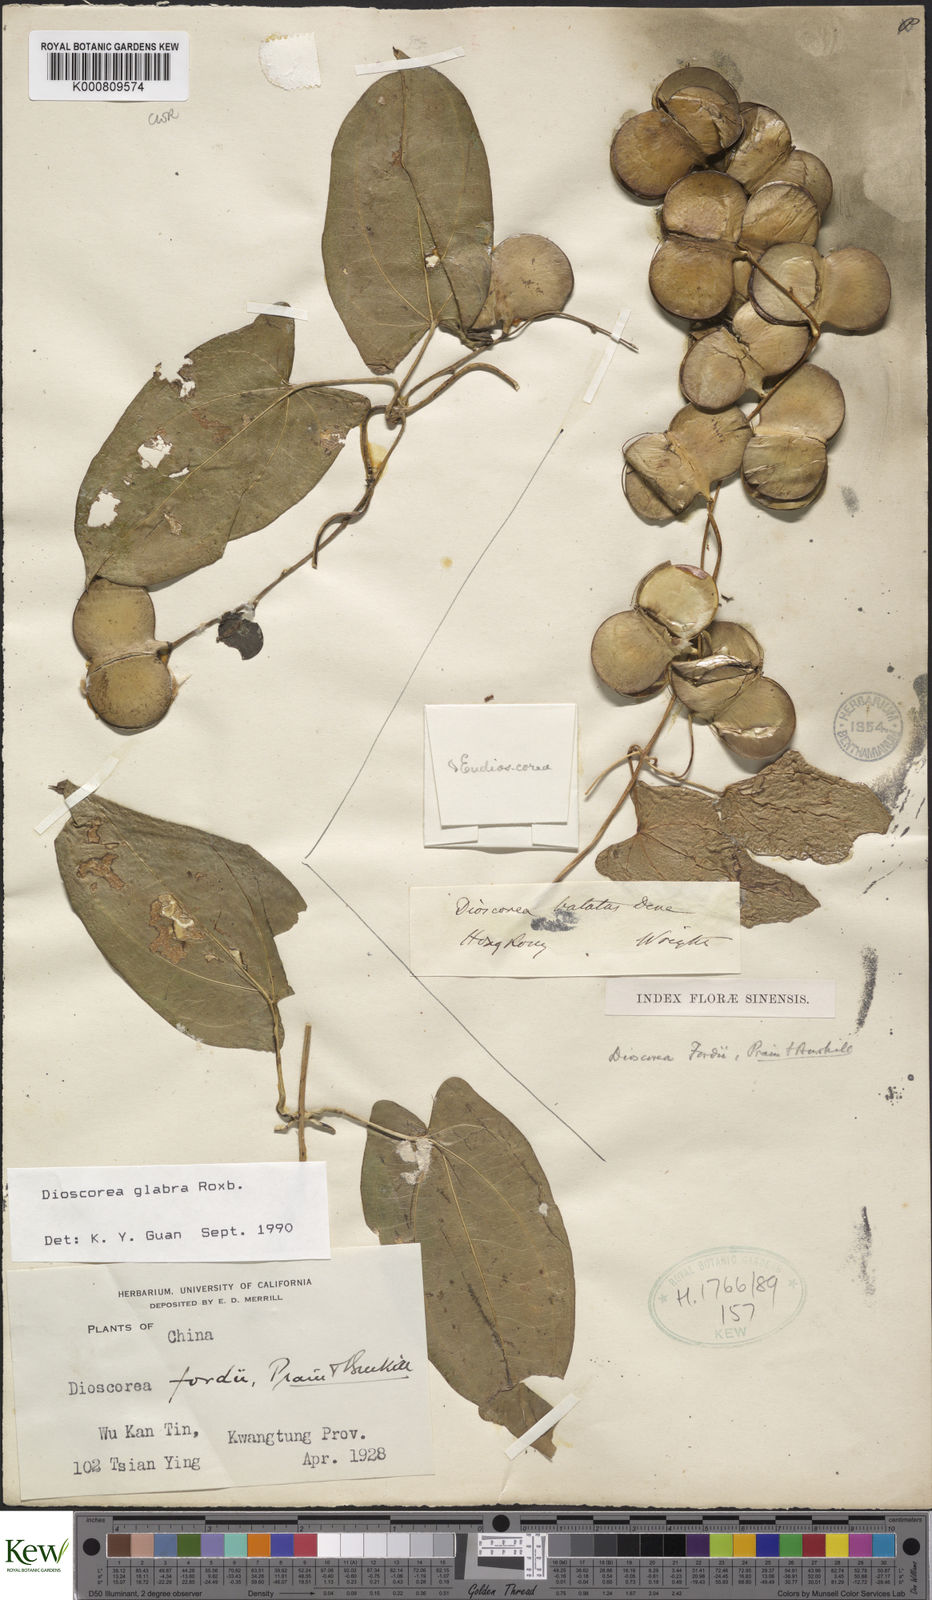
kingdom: Plantae
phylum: Tracheophyta
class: Liliopsida
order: Dioscoreales
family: Dioscoreaceae
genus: Dioscorea
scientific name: Dioscorea glabra
